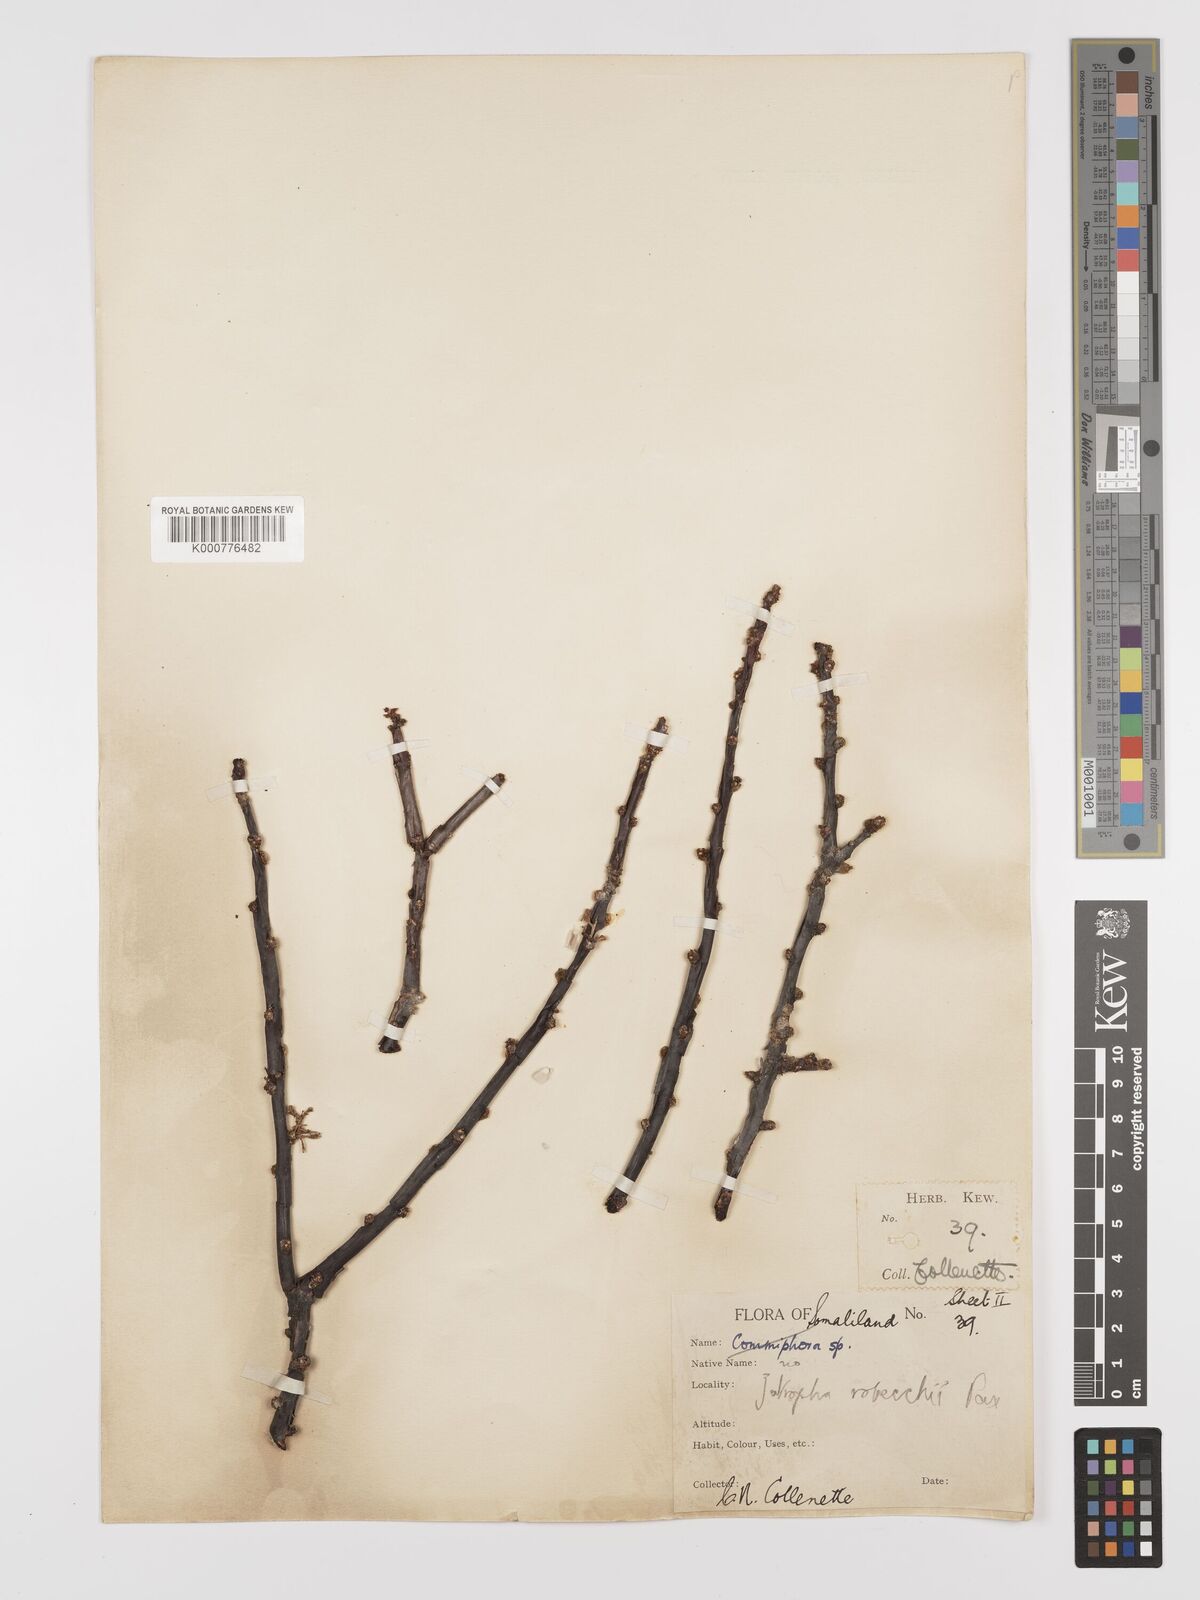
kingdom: Plantae
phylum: Tracheophyta
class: Magnoliopsida
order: Malpighiales
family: Euphorbiaceae
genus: Jatropha
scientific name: Jatropha robecchii
